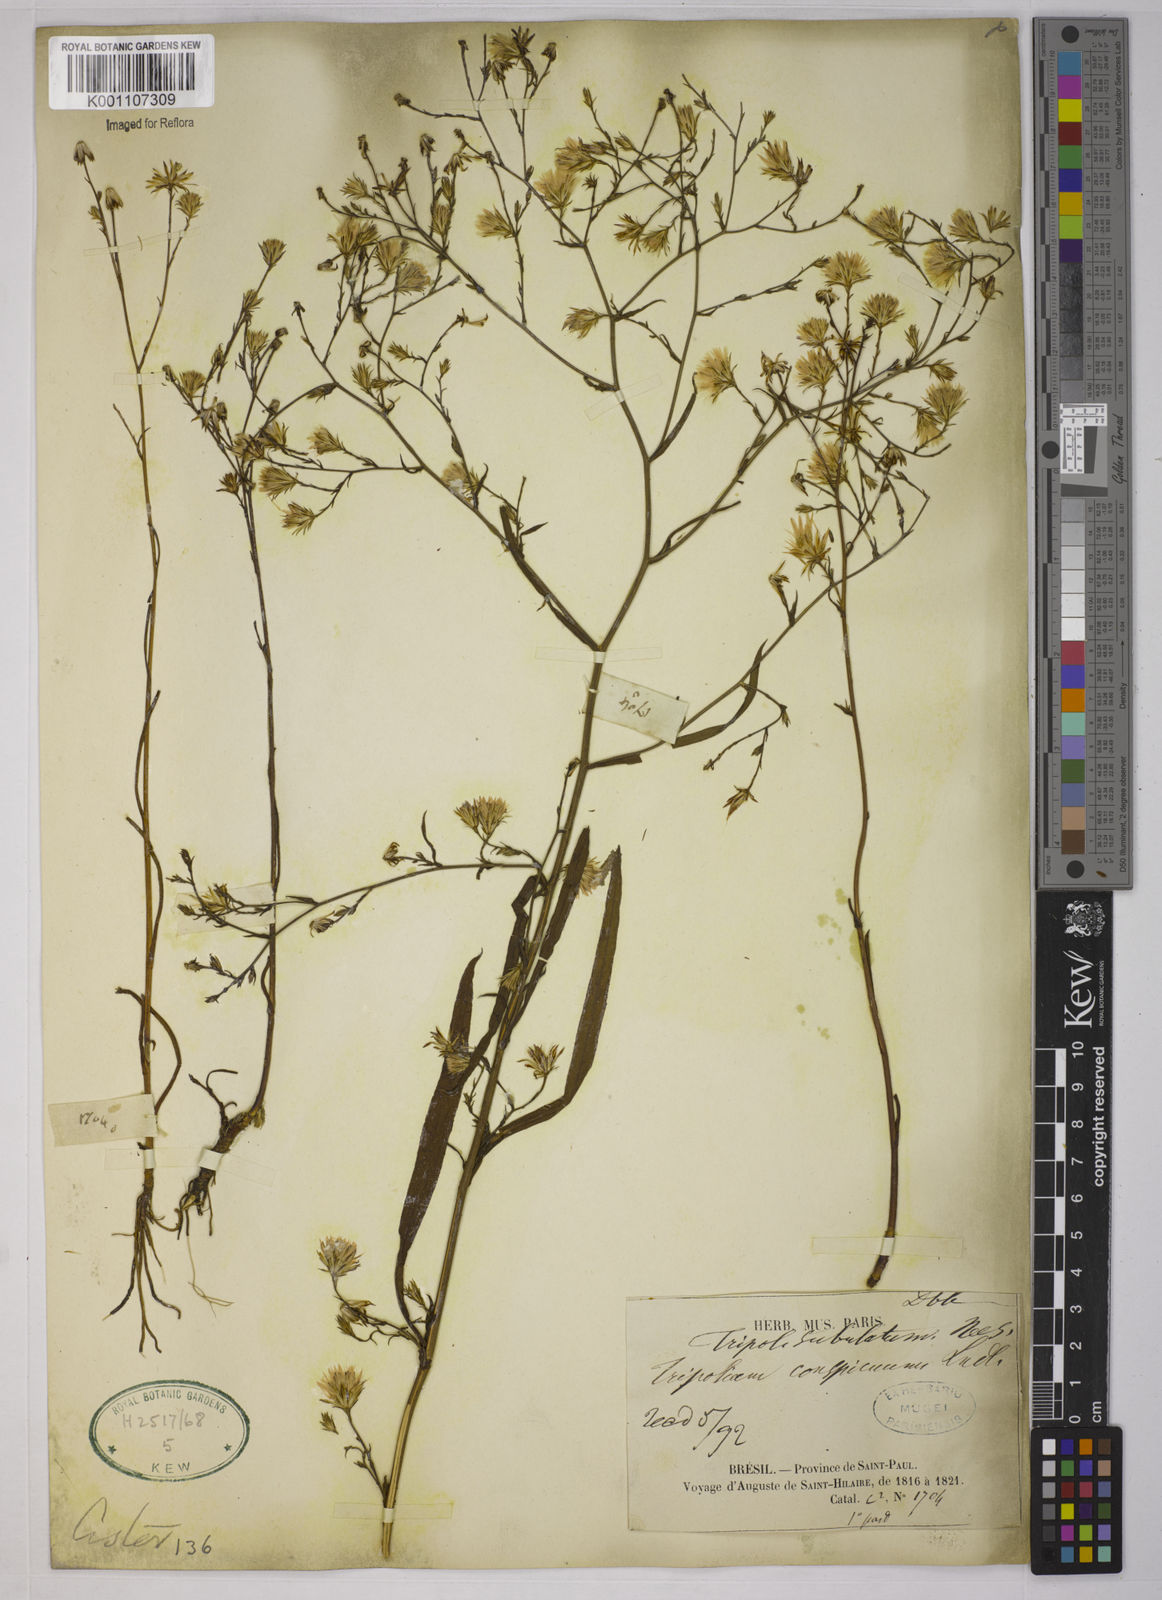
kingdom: Plantae
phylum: Tracheophyta
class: Magnoliopsida
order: Asterales
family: Asteraceae
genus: Symphyotrichum
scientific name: Symphyotrichum
